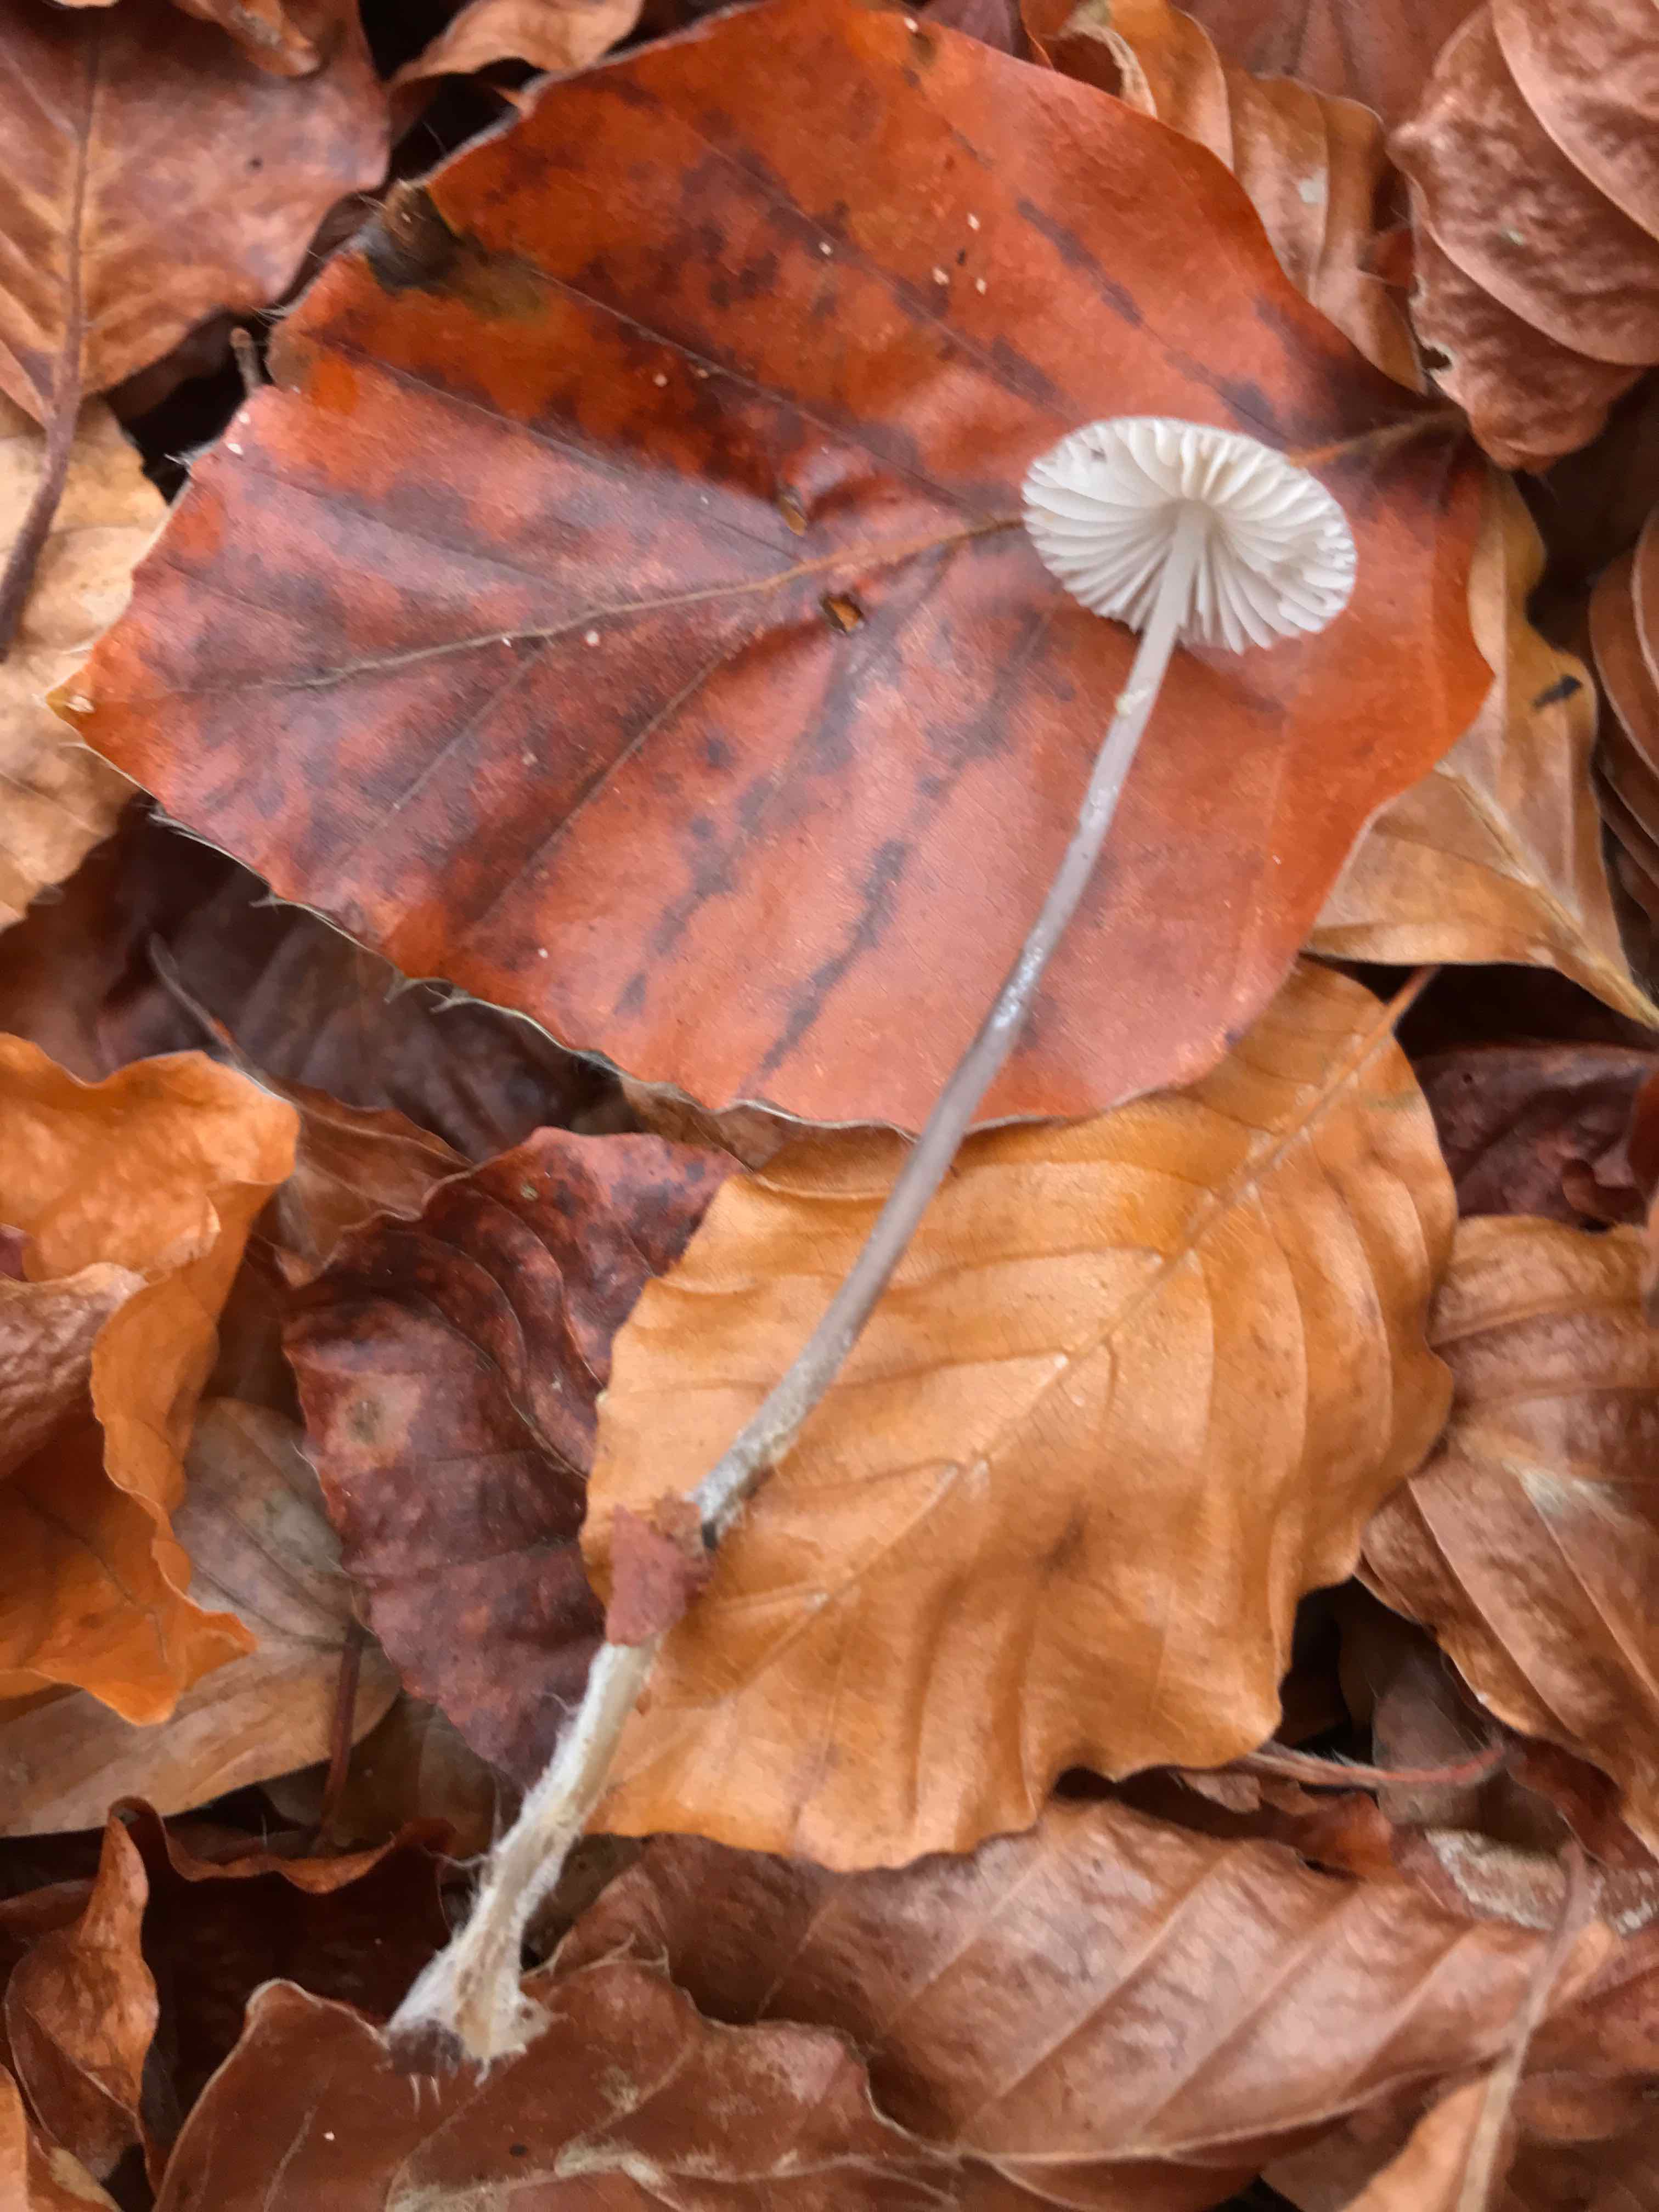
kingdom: Fungi
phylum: Basidiomycota
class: Agaricomycetes
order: Agaricales
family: Mycenaceae
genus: Mycena
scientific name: Mycena vitilis
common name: blankstokket huesvamp
